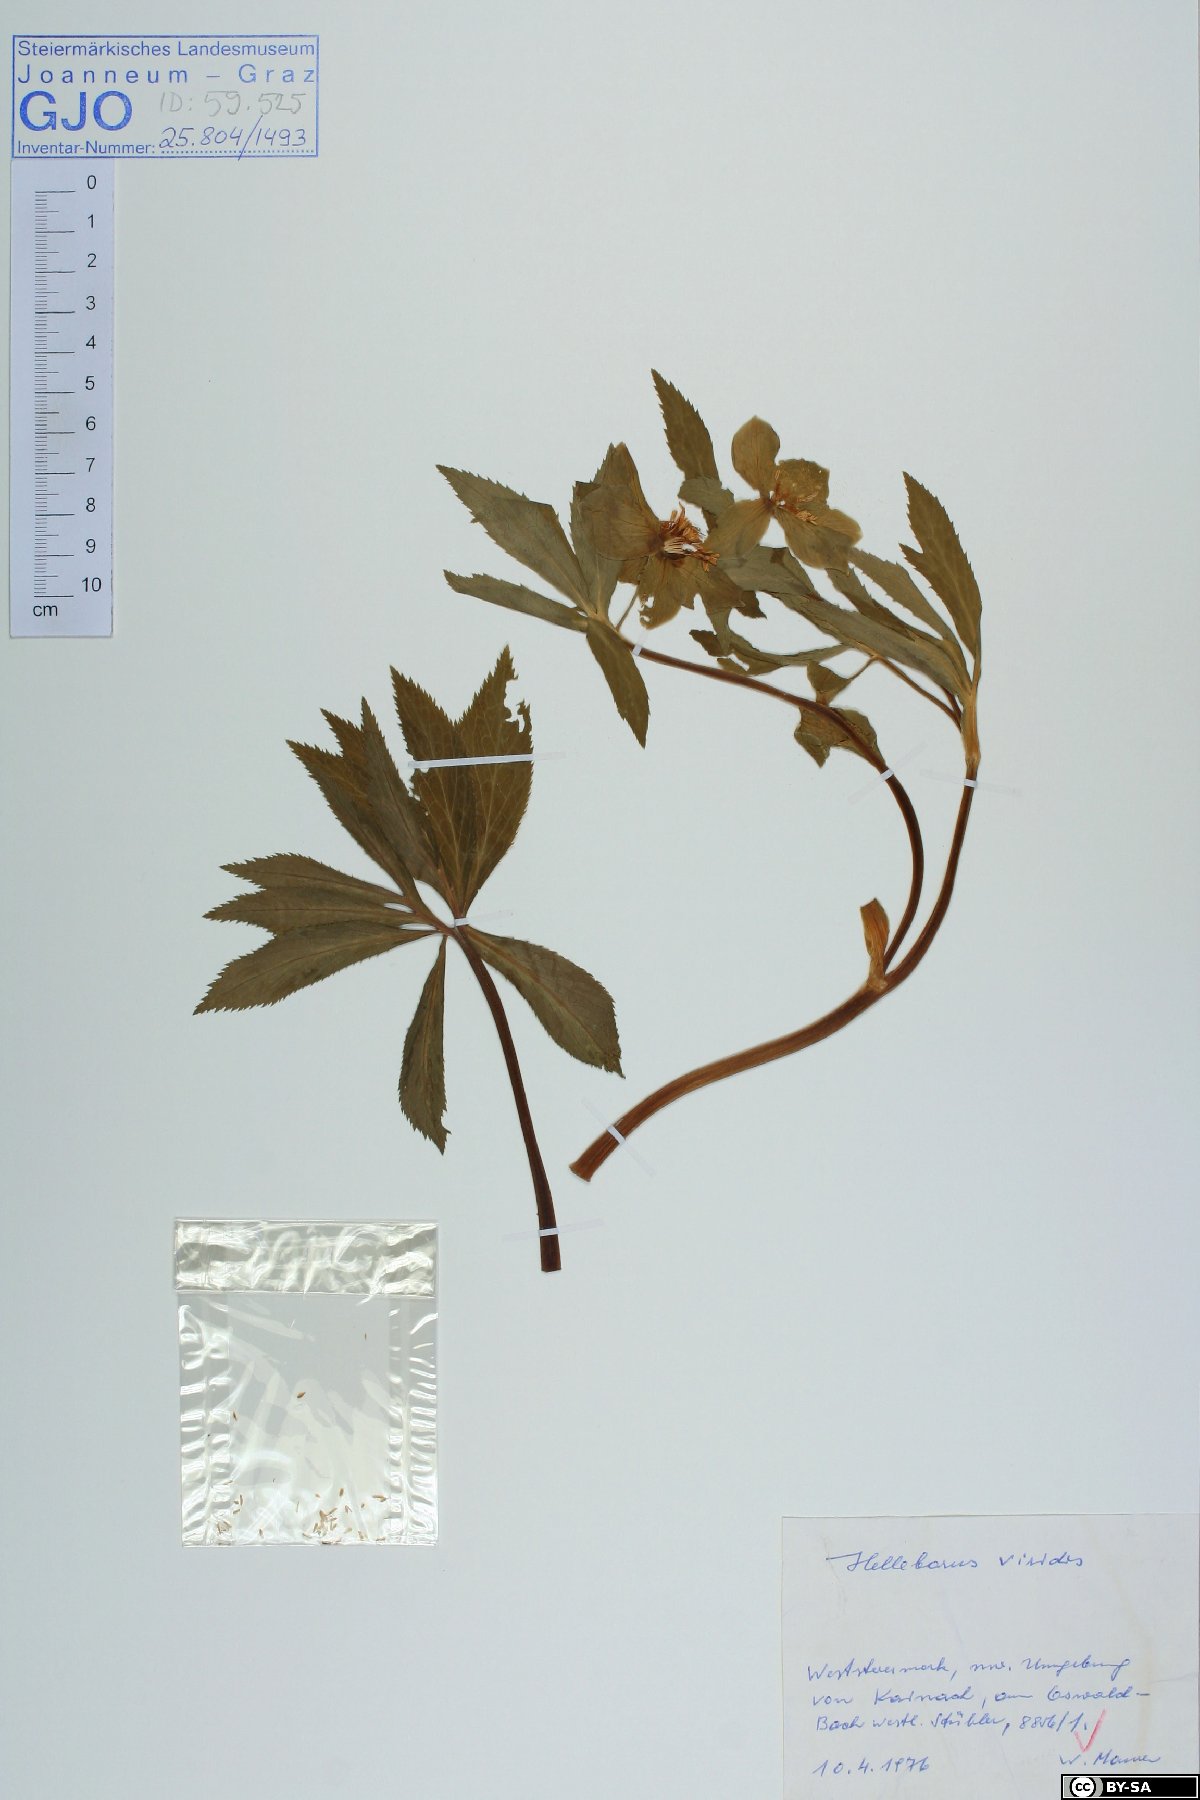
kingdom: Plantae
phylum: Tracheophyta
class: Magnoliopsida
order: Ranunculales
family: Ranunculaceae
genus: Helleborus
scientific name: Helleborus viridis
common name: Green hellebore
